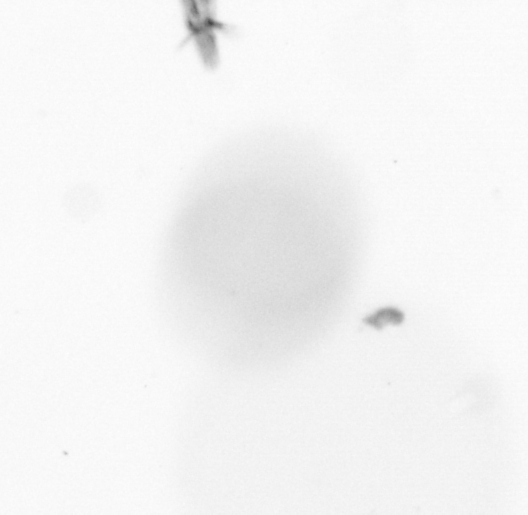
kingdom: Animalia
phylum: Arthropoda
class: Copepoda
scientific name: Copepoda
